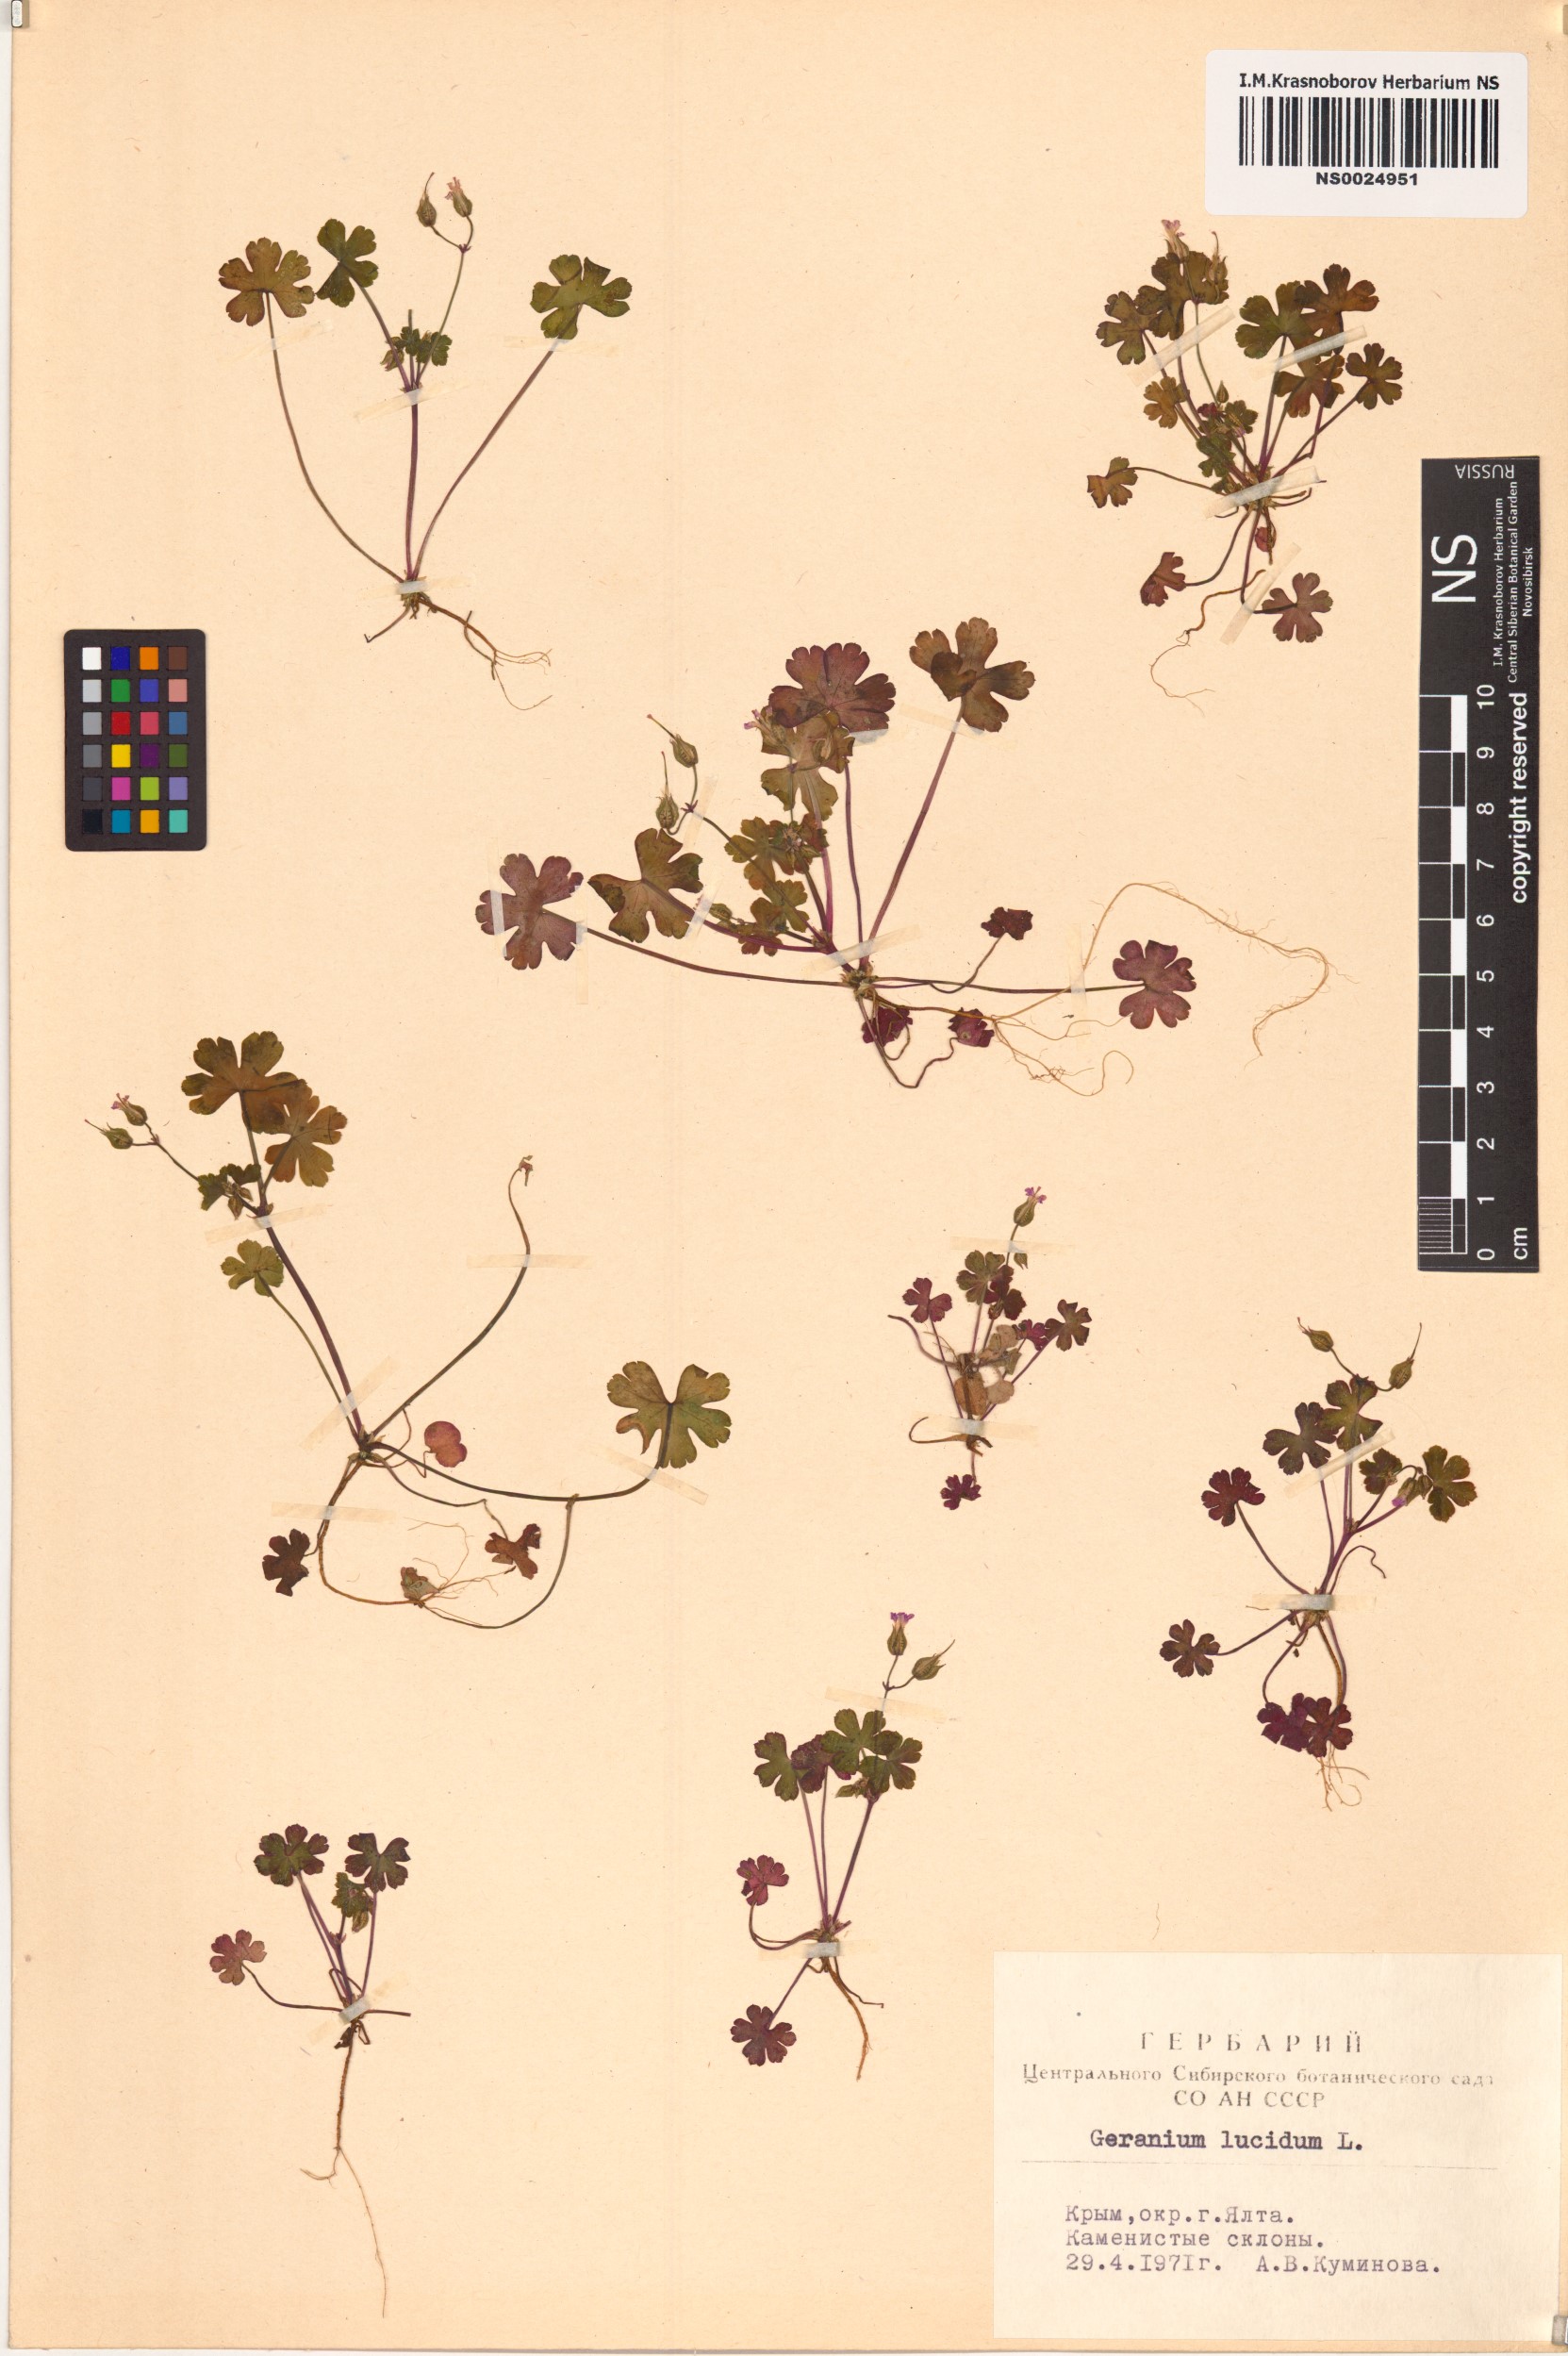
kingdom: Plantae
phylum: Tracheophyta
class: Magnoliopsida
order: Geraniales
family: Geraniaceae
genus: Geranium
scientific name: Geranium lucidum
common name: Shining crane's-bill
